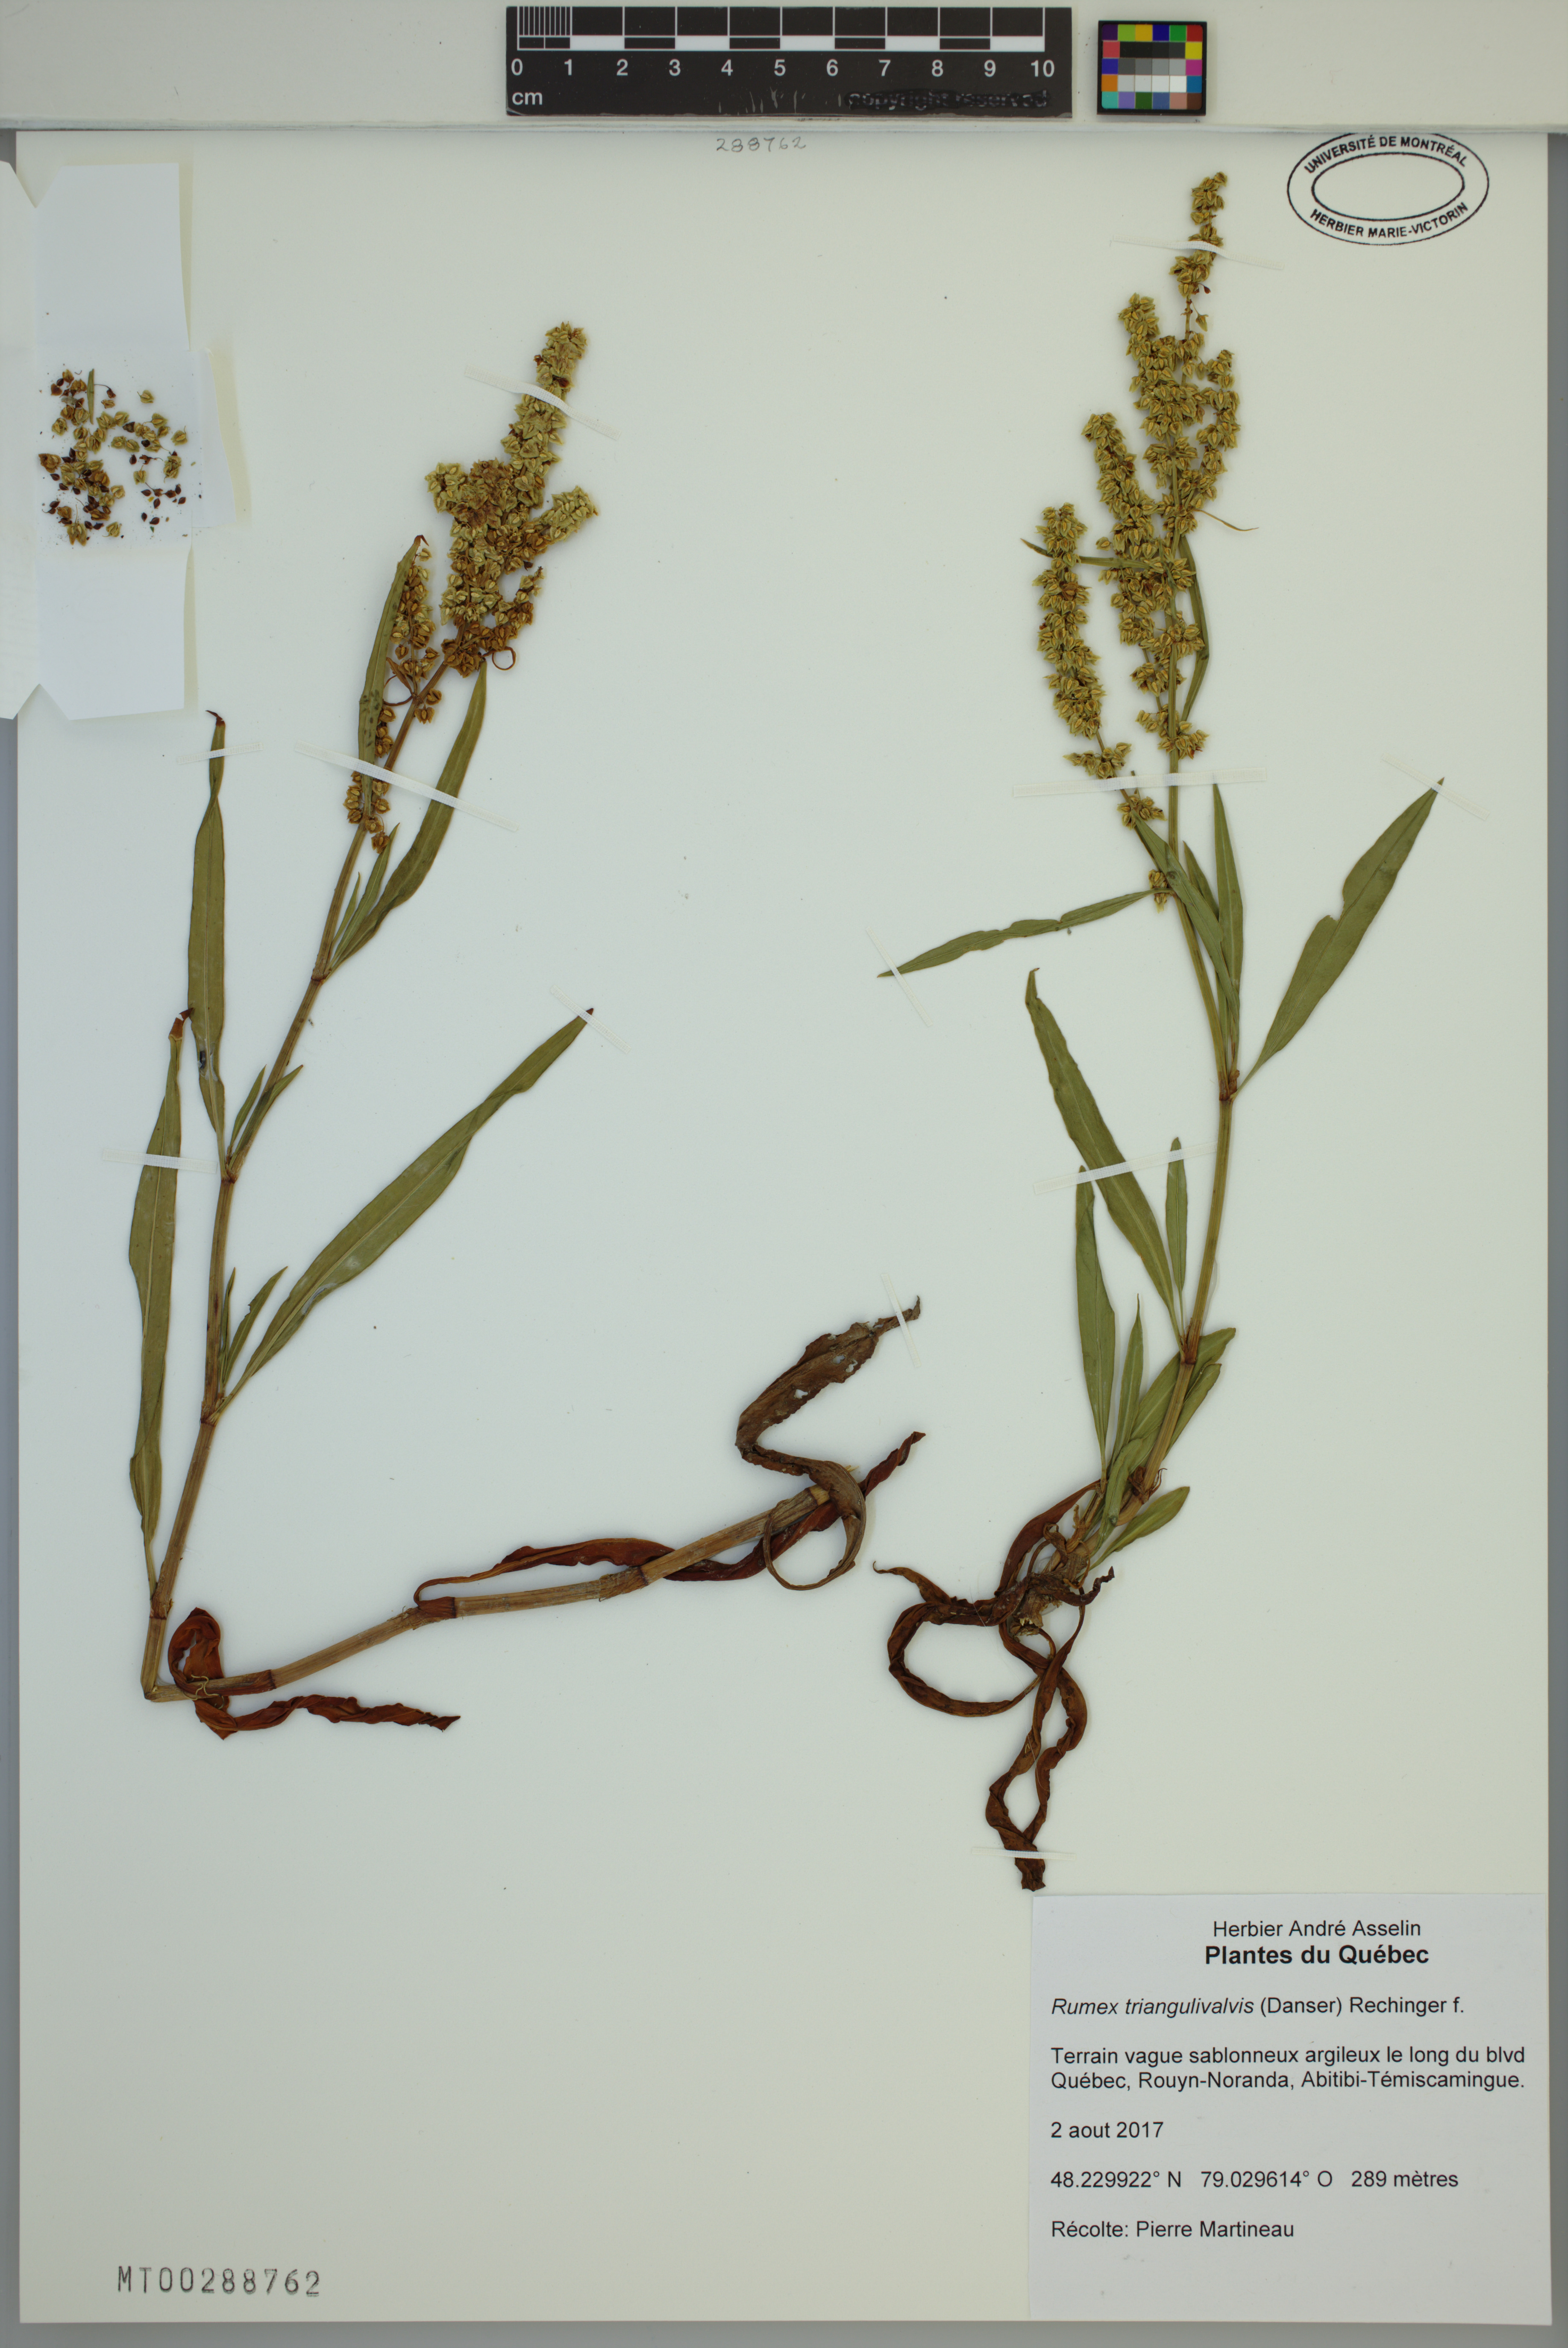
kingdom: Plantae
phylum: Tracheophyta
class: Magnoliopsida
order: Caryophyllales
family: Polygonaceae
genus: Rumex
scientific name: Rumex triangulivalvis
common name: Triangular-valve dock
